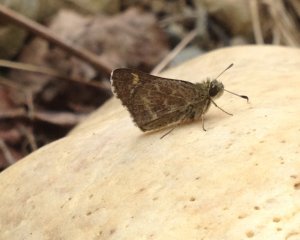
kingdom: Animalia
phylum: Arthropoda
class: Insecta
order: Lepidoptera
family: Hesperiidae
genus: Mastor
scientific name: Mastor hegon
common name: Pepper and Salt Skipper
